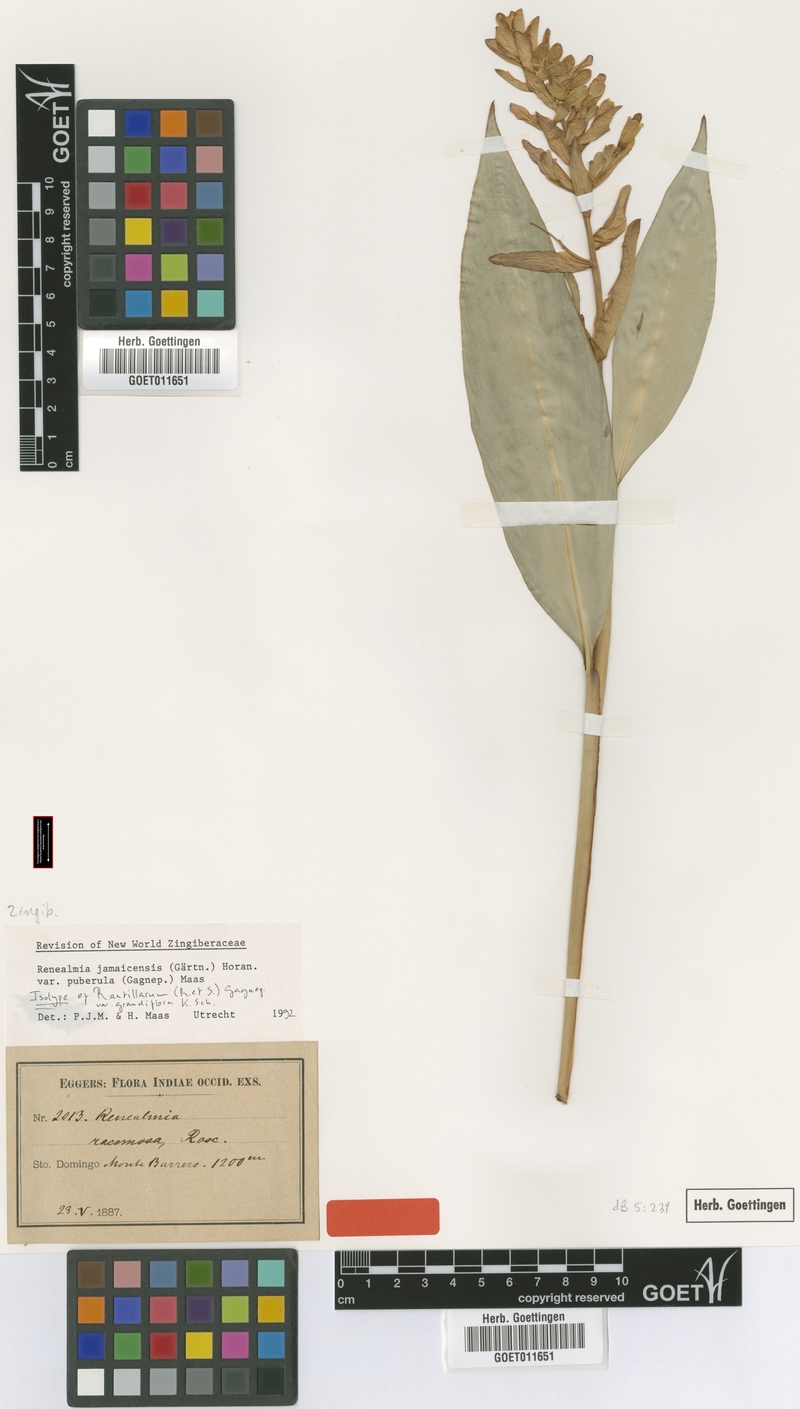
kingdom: Plantae
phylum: Tracheophyta
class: Liliopsida
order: Zingiberales
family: Zingiberaceae
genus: Renealmia
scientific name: Renealmia jamaicensis
